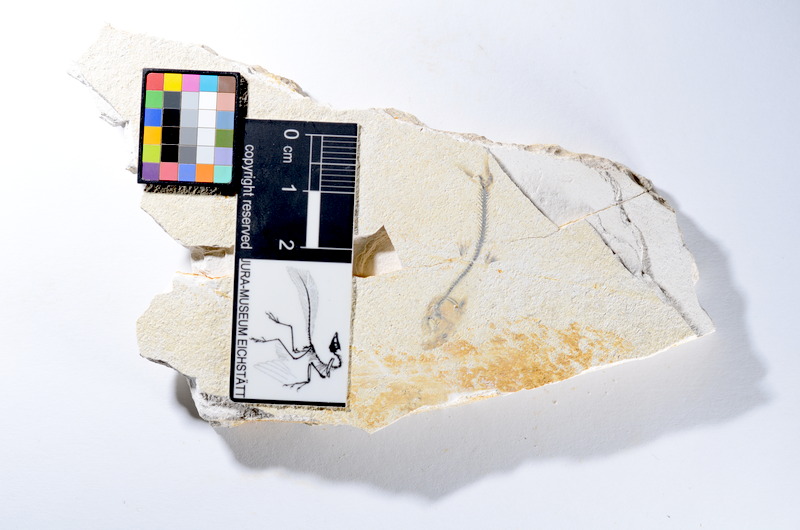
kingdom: Animalia
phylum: Chordata
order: Salmoniformes
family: Orthogonikleithridae
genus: Orthogonikleithrus
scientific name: Orthogonikleithrus hoelli
